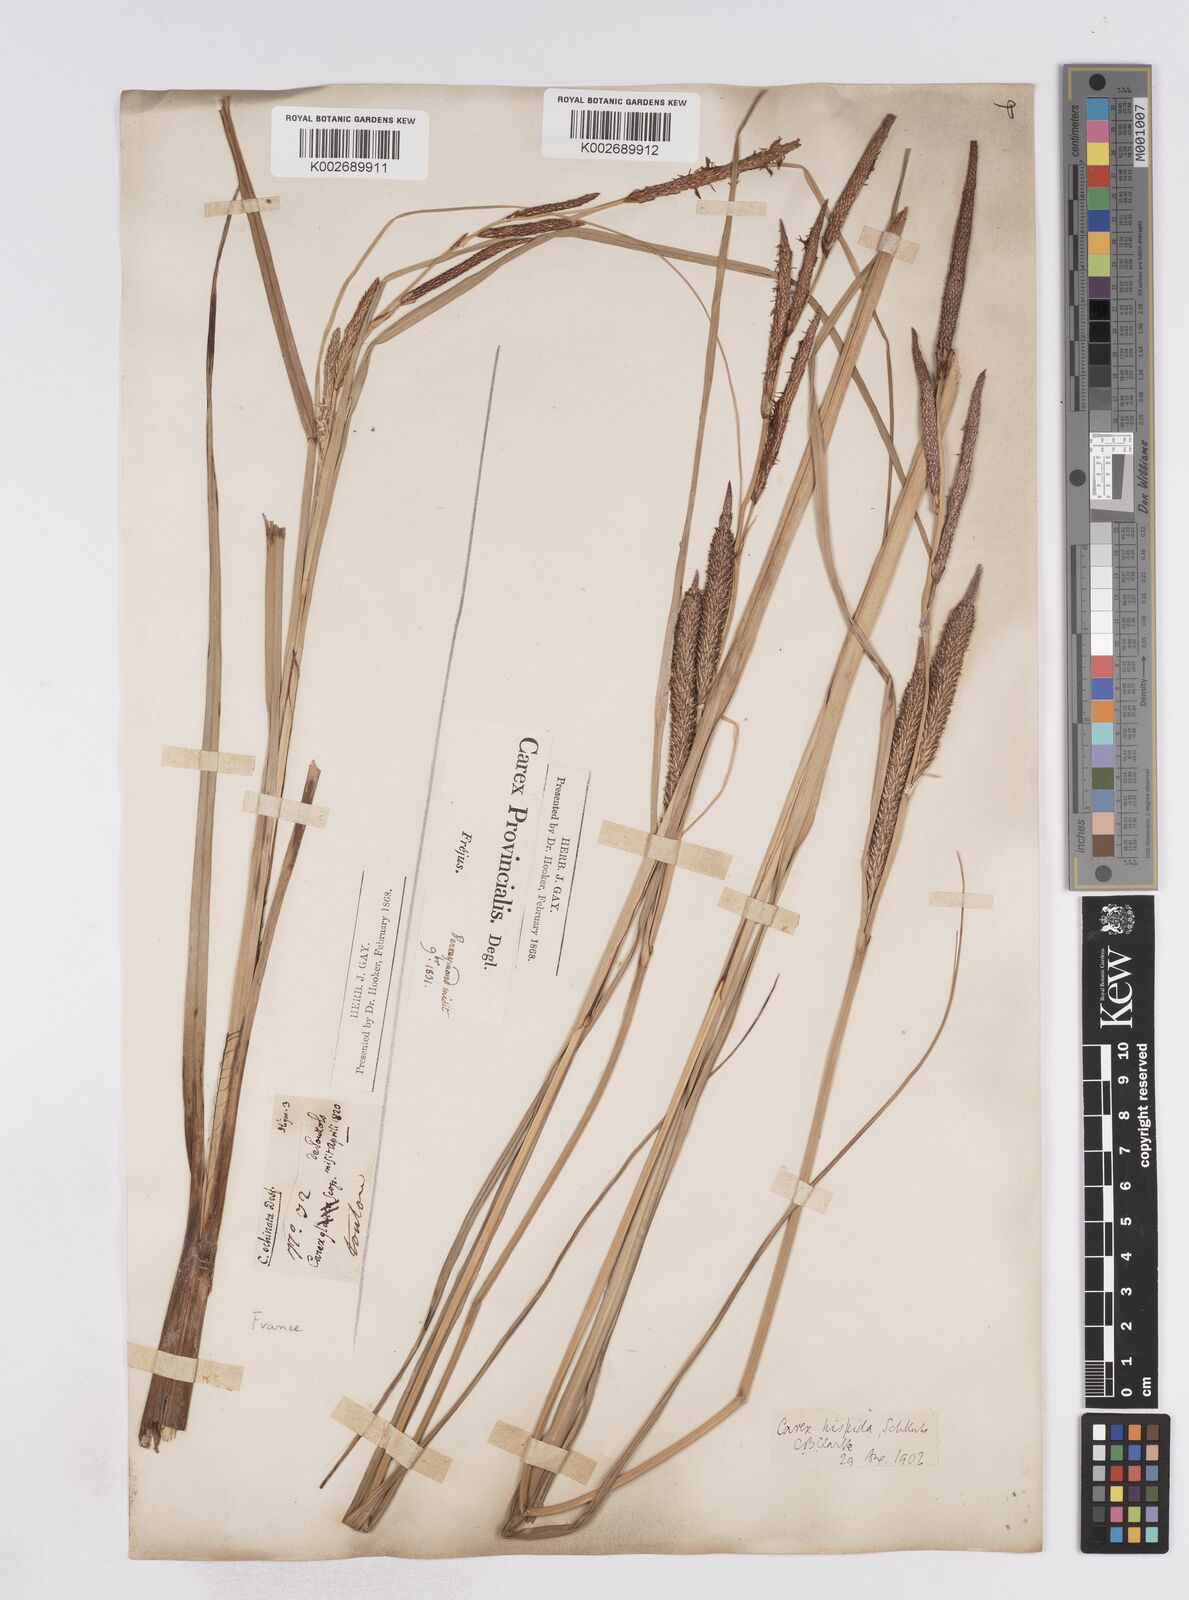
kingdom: Plantae
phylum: Tracheophyta
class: Liliopsida
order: Poales
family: Cyperaceae
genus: Carex
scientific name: Carex hispida
